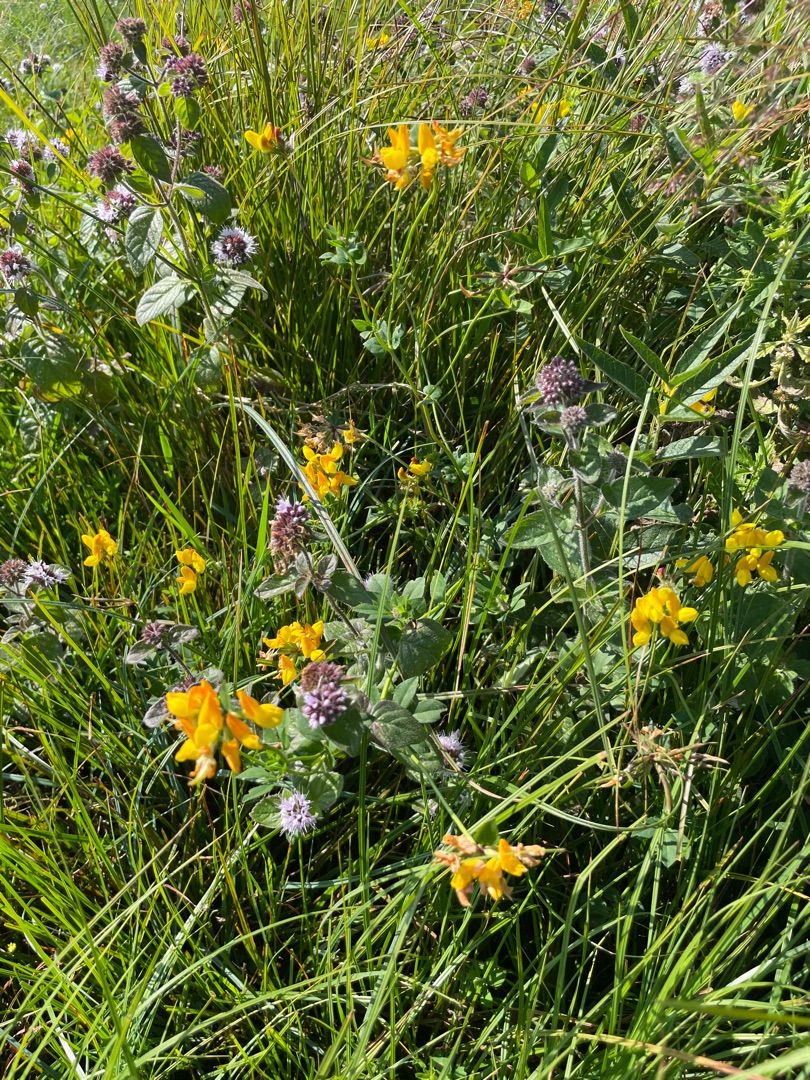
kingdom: Plantae
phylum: Tracheophyta
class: Magnoliopsida
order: Fabales
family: Fabaceae
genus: Lotus
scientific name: Lotus
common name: Kællingetandslægten
